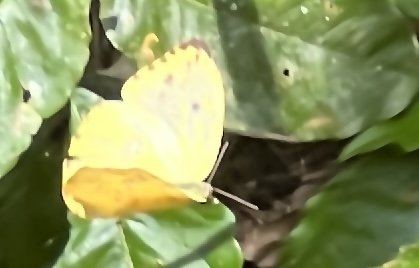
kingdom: Animalia
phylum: Arthropoda
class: Insecta
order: Lepidoptera
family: Pieridae
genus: Phoebis
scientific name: Phoebis argante
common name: Apricot Sulphur
